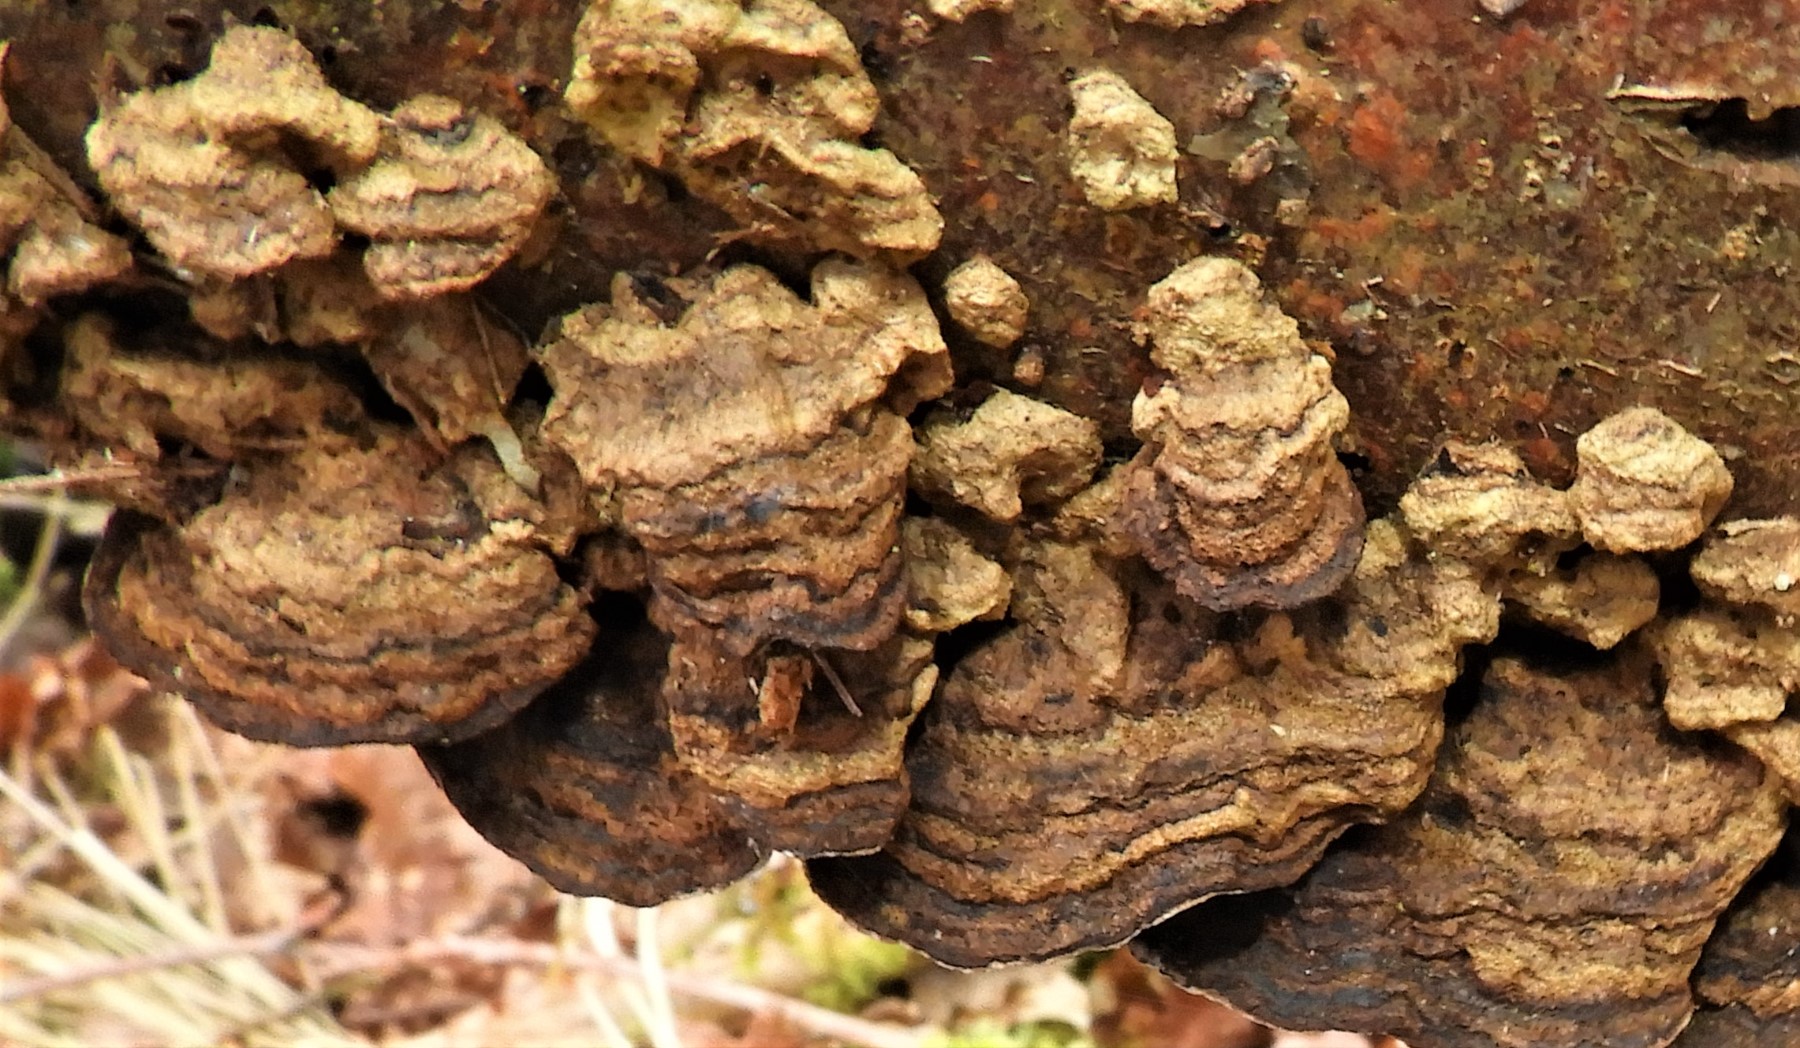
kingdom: Fungi
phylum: Basidiomycota
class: Agaricomycetes
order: Polyporales
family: Polyporaceae
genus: Podofomes
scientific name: Podofomes mollis
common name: blød begporesvamp
